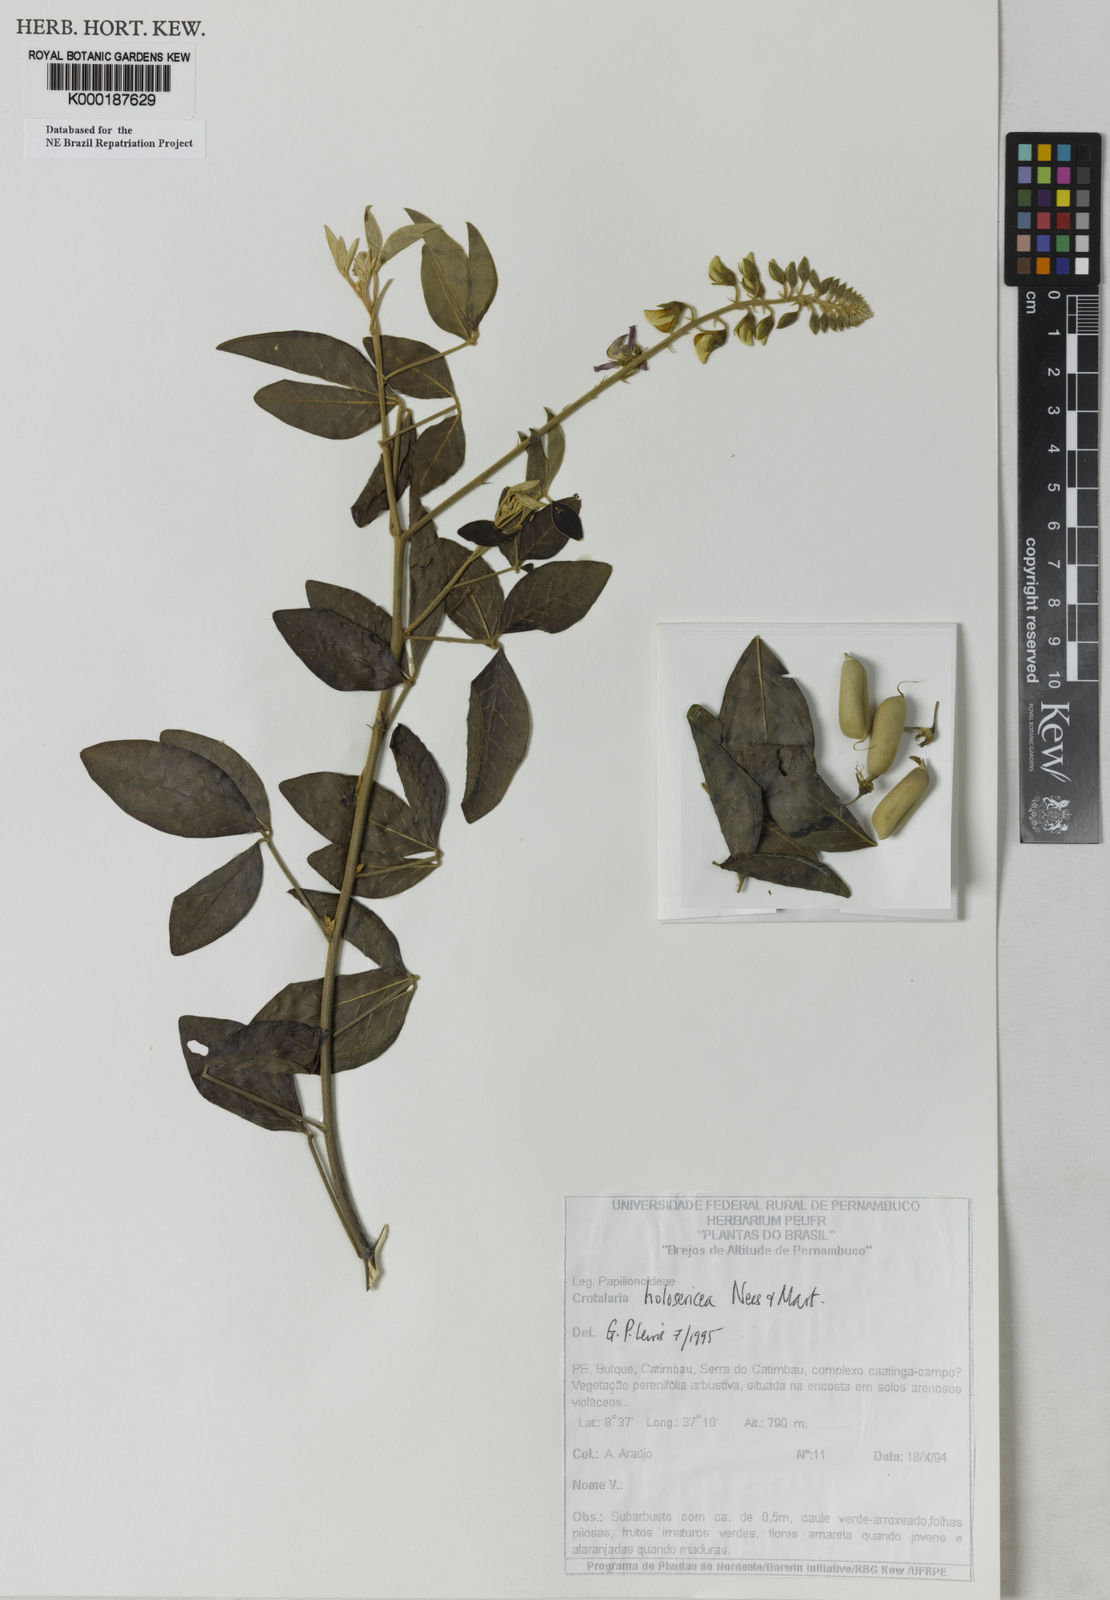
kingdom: Plantae
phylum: Tracheophyta
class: Magnoliopsida
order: Fabales
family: Fabaceae
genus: Crotalaria
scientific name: Crotalaria holosericea
